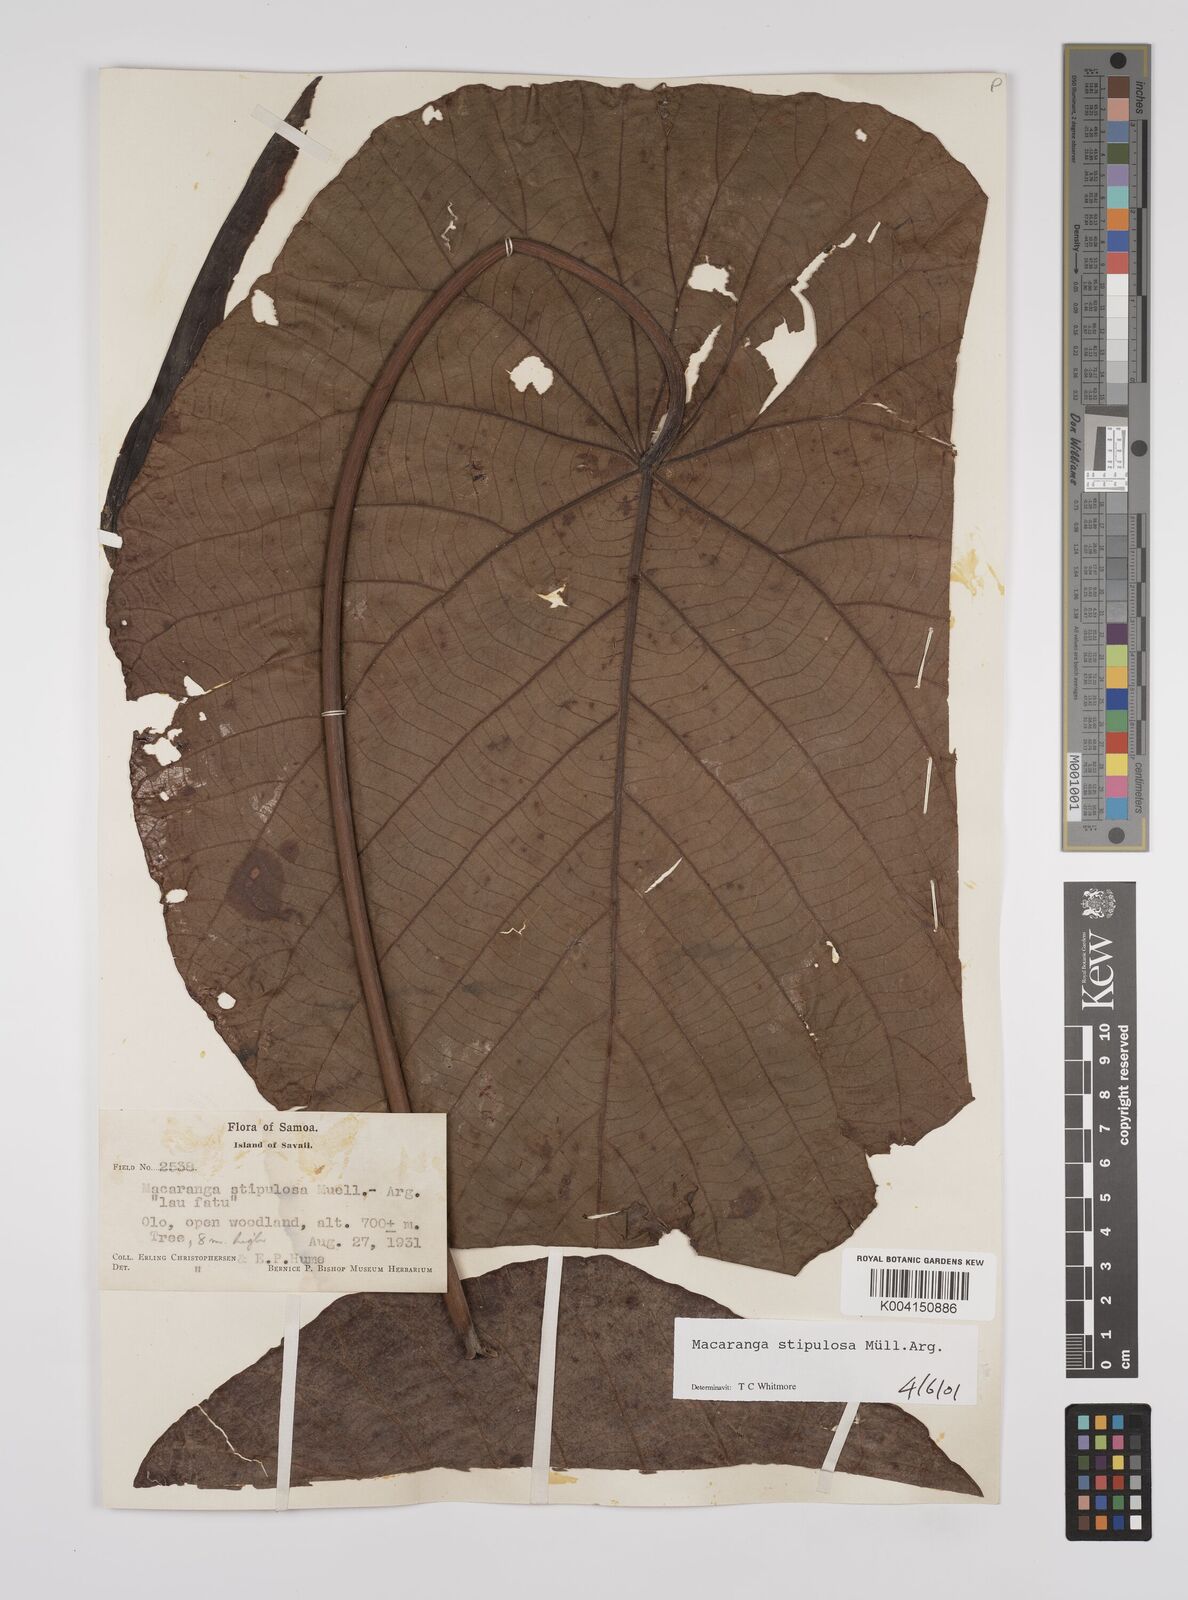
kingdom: Plantae
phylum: Tracheophyta
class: Magnoliopsida
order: Malpighiales
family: Euphorbiaceae
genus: Macaranga
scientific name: Macaranga stipulosa
